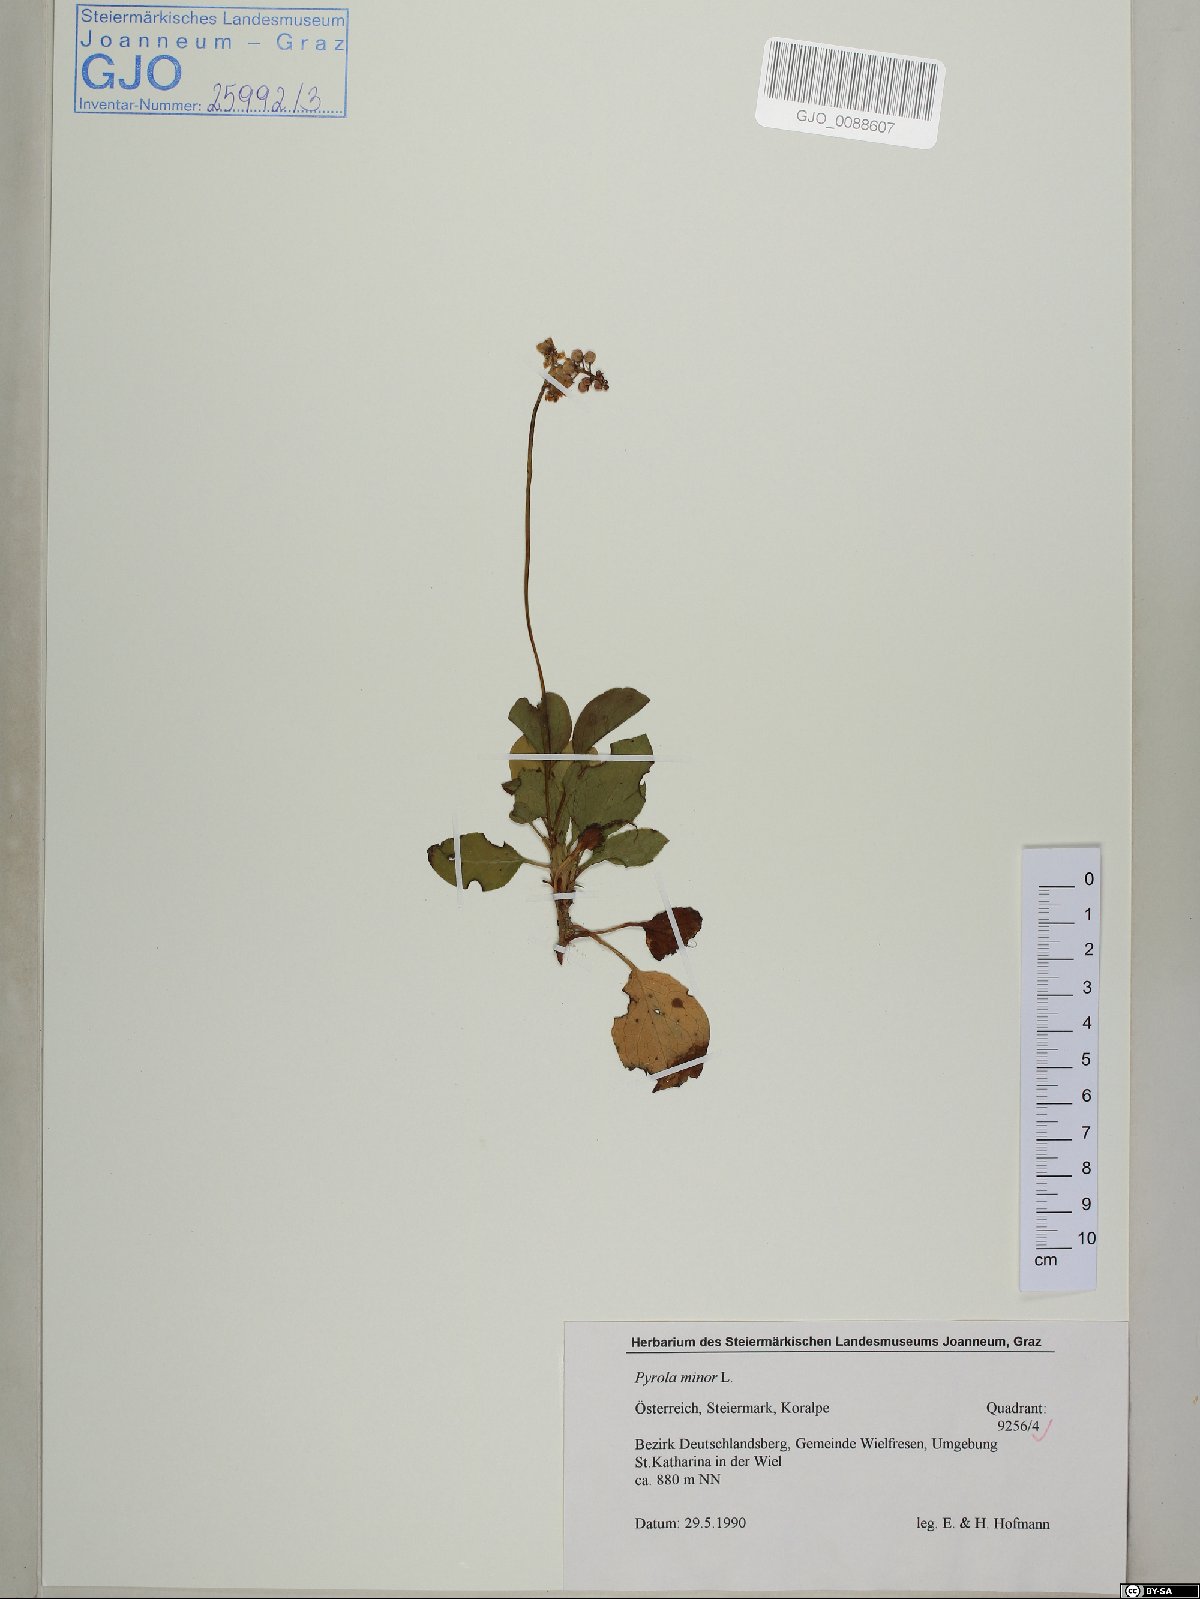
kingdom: Plantae
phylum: Tracheophyta
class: Magnoliopsida
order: Ericales
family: Ericaceae
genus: Pyrola
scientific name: Pyrola minor
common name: Common wintergreen
